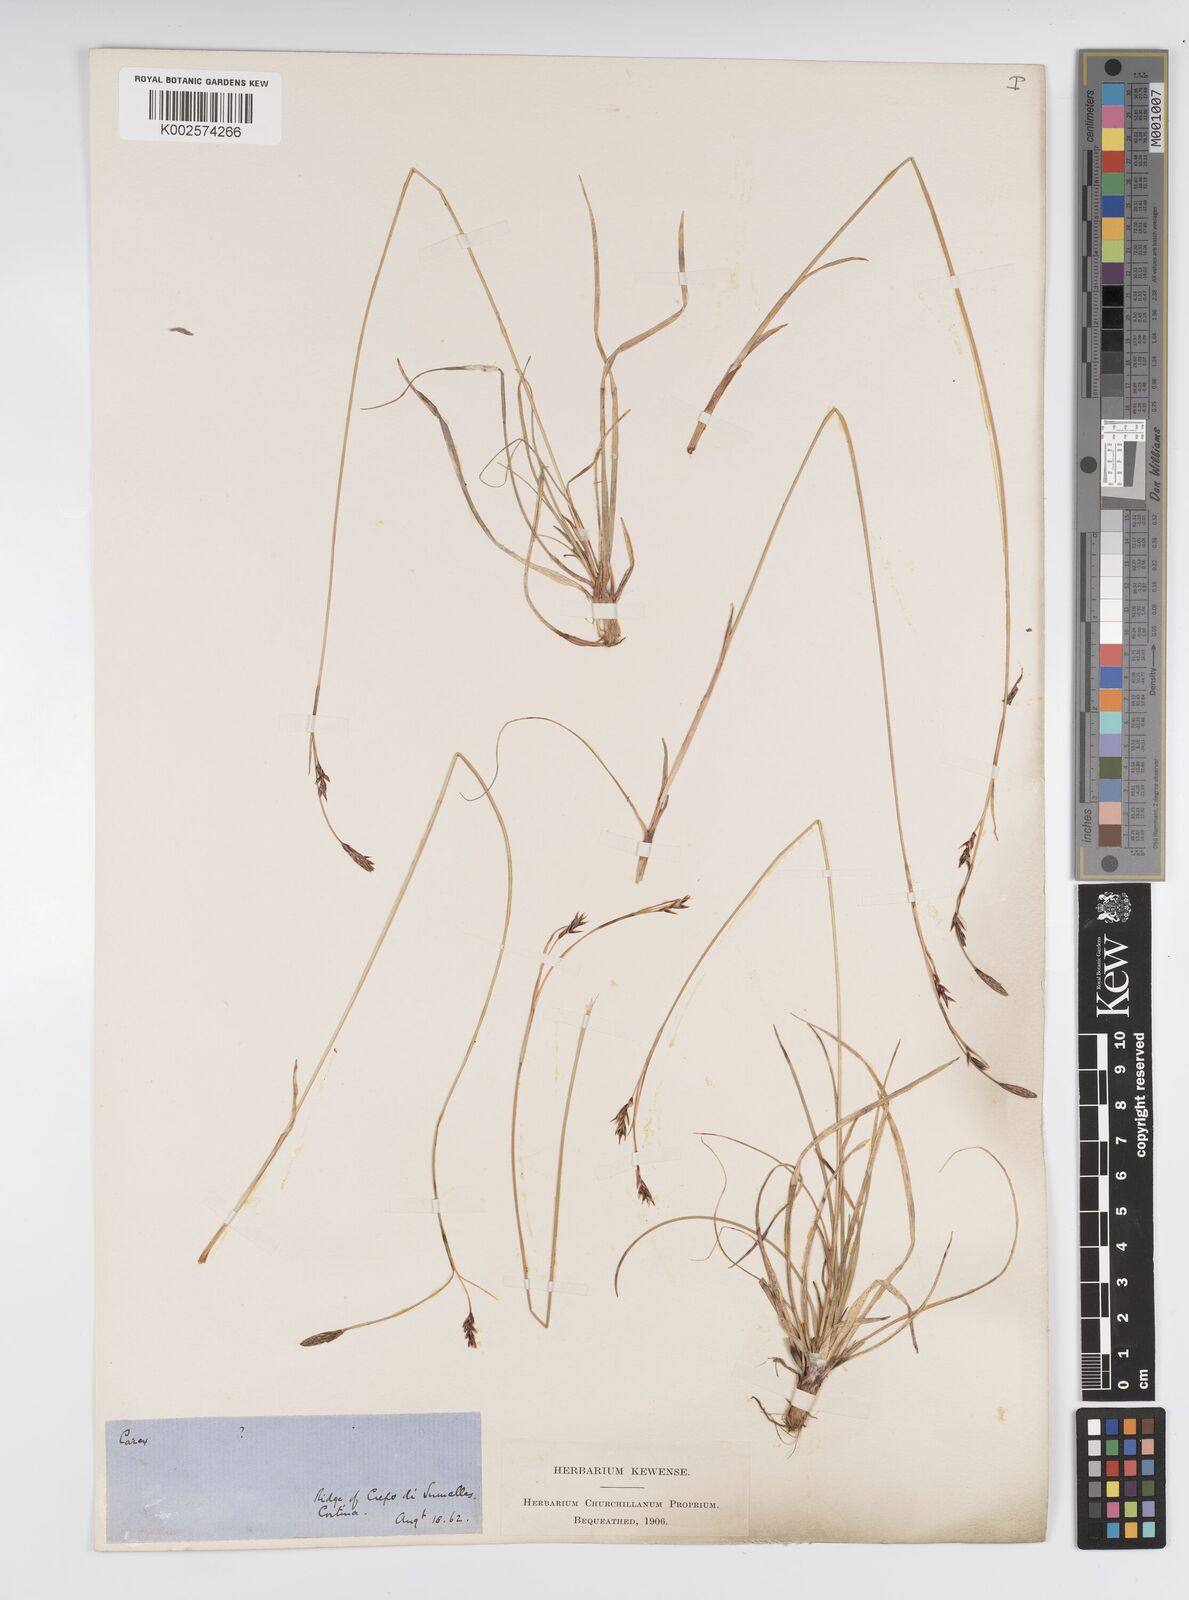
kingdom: Plantae
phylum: Tracheophyta
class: Liliopsida
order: Poales
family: Cyperaceae
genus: Carex
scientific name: Carex frigida
